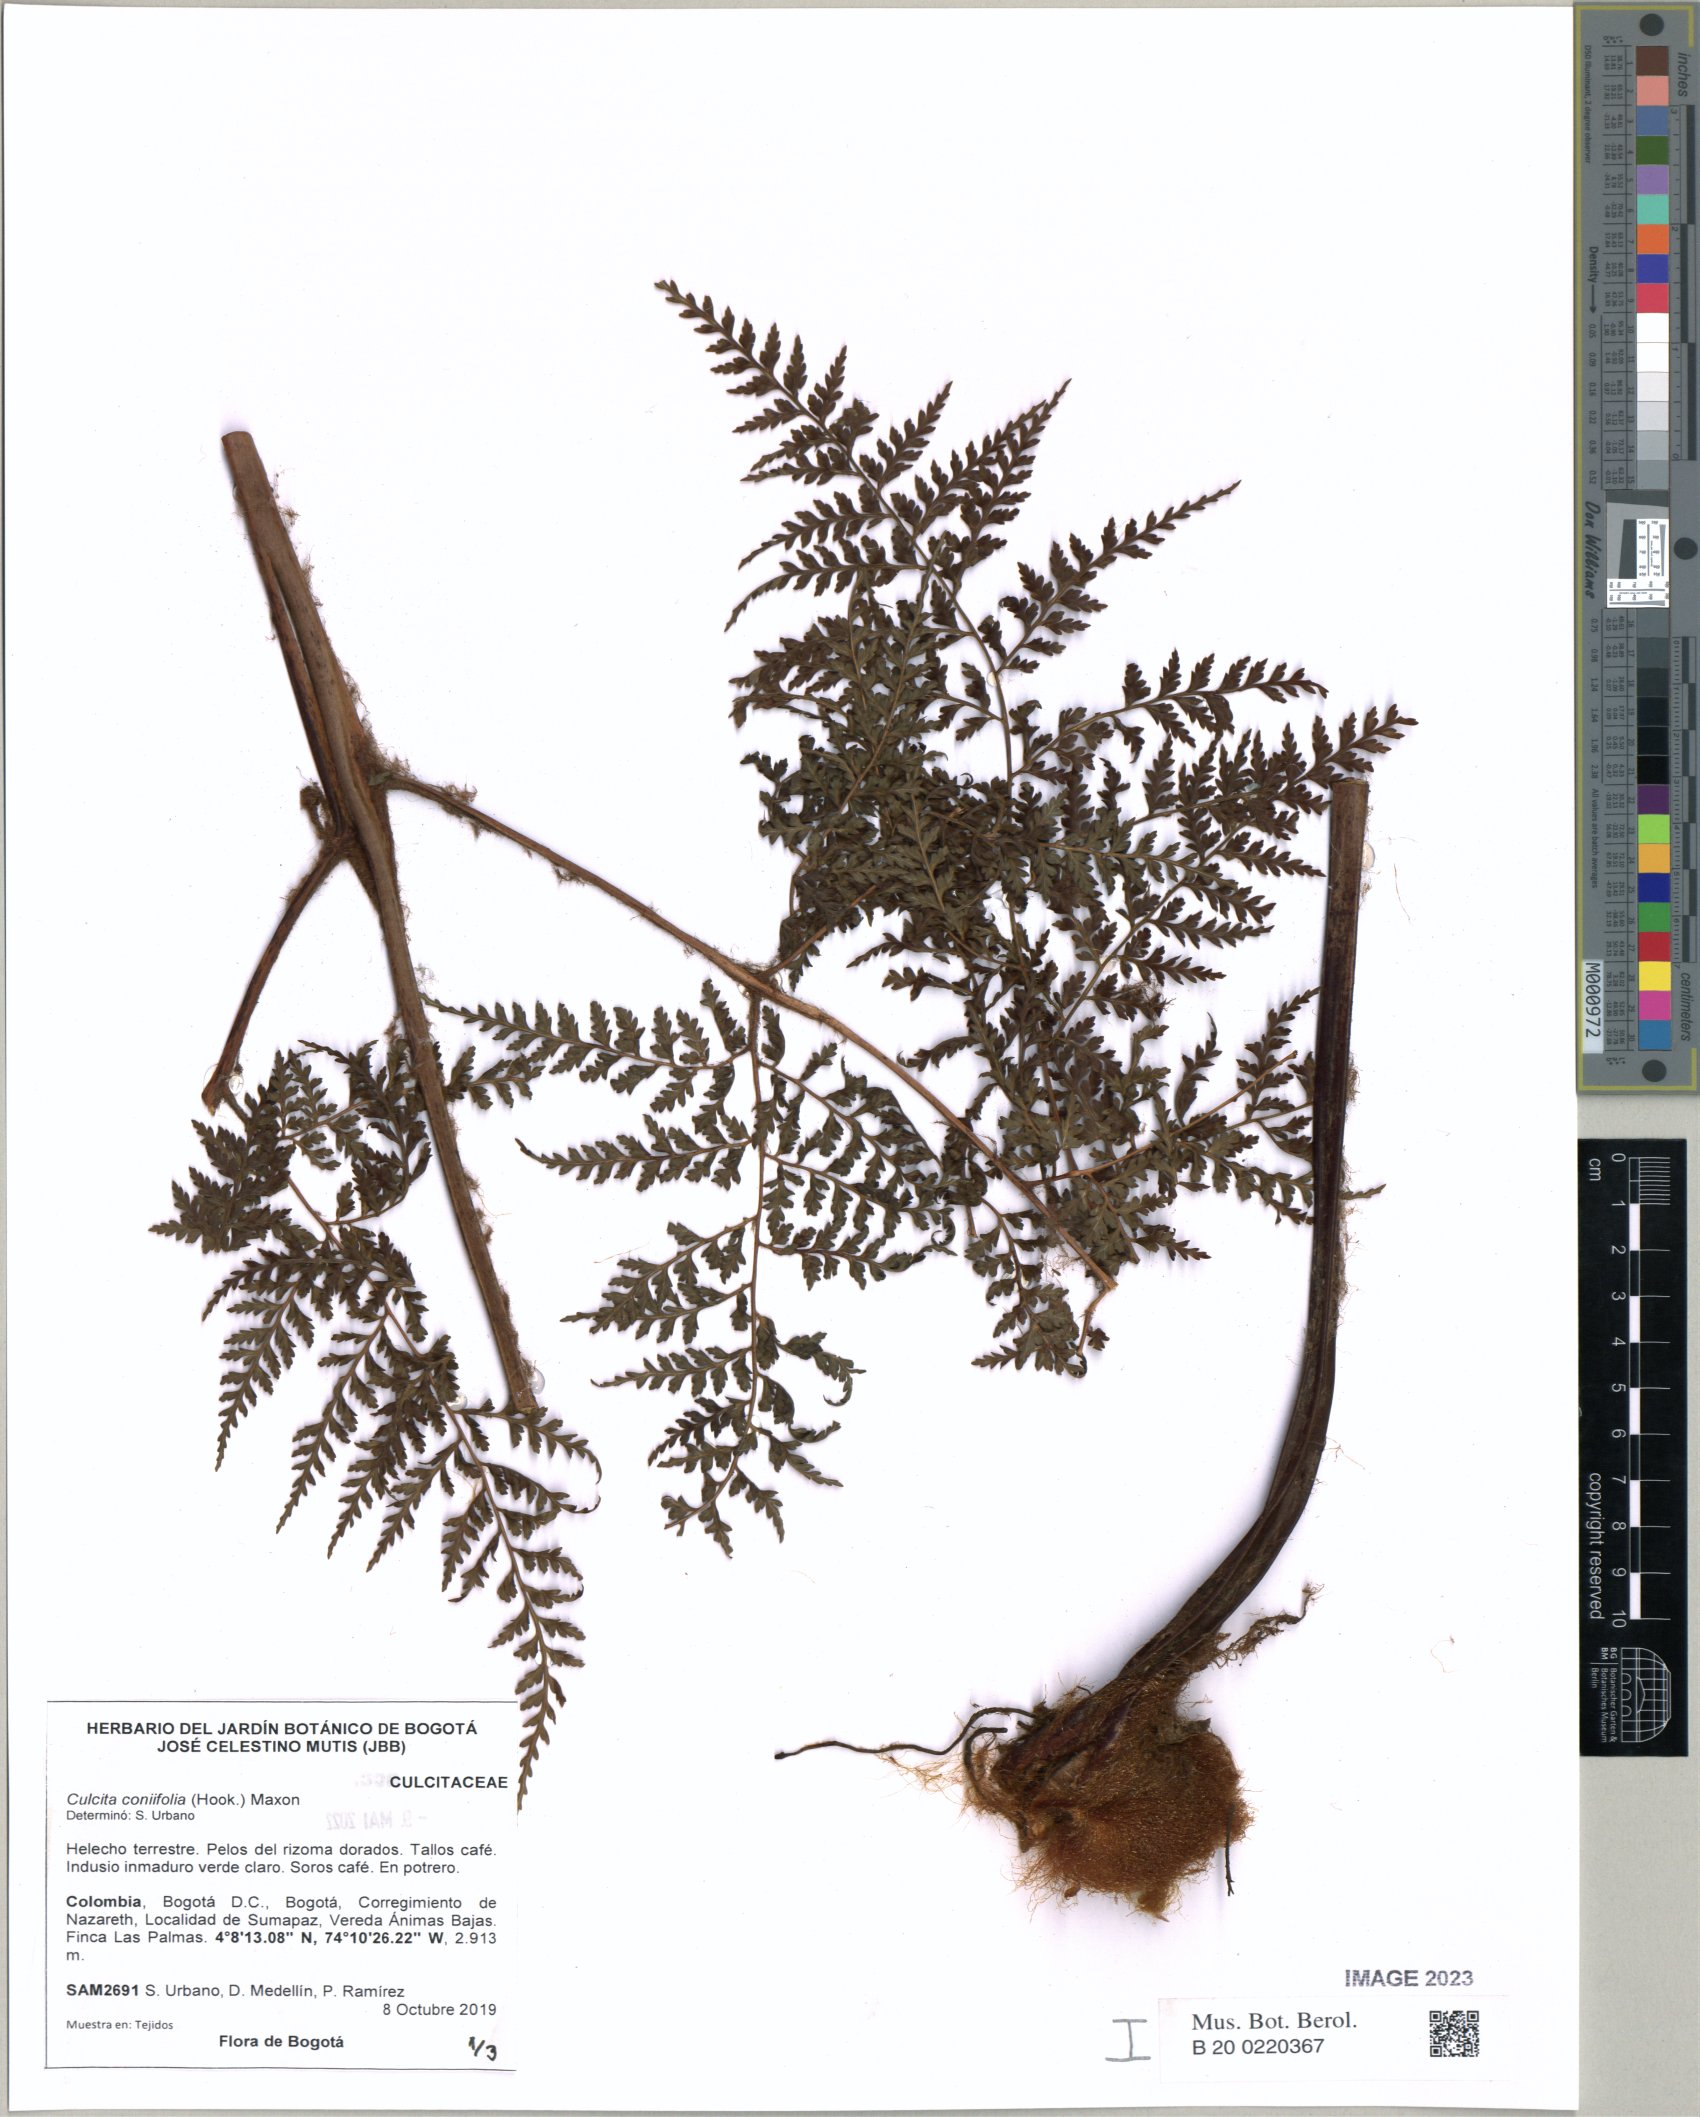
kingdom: Plantae
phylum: Tracheophyta
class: Polypodiopsida
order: Cyatheales
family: Culcitaceae
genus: Culcita
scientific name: Culcita coniifolia
